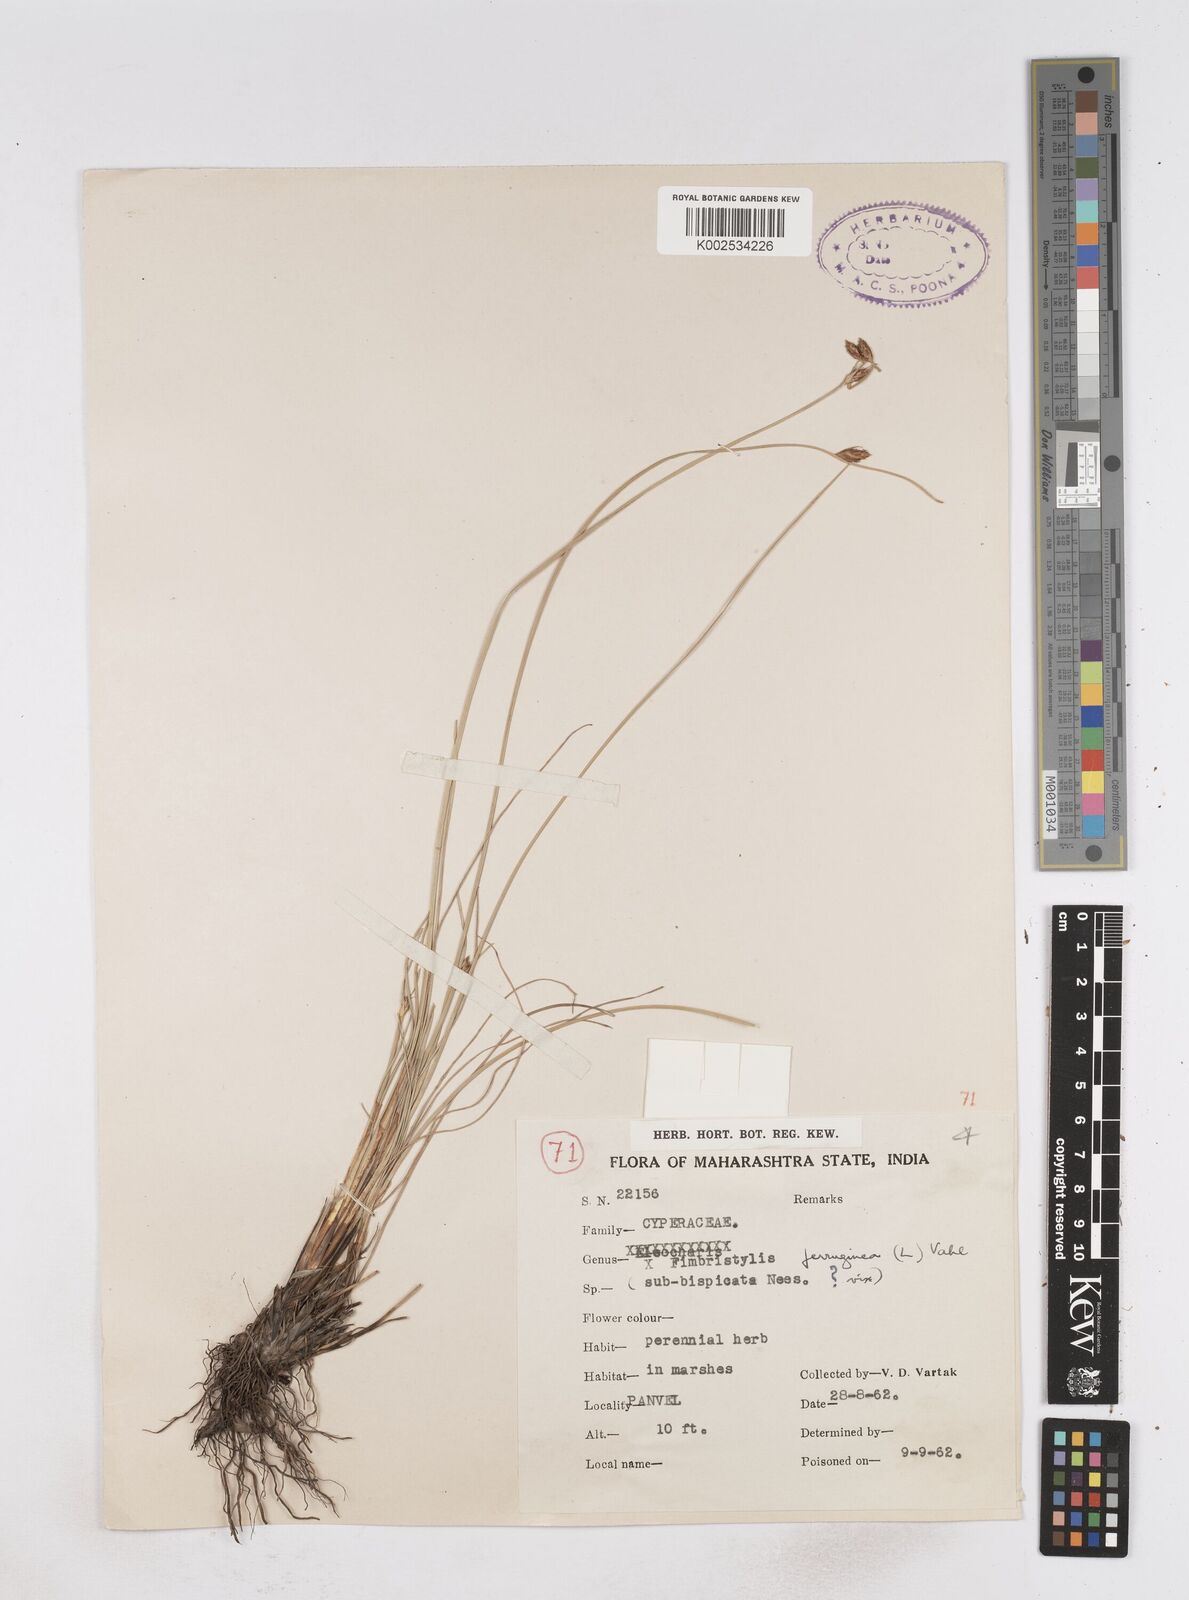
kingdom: Plantae
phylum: Tracheophyta
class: Liliopsida
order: Poales
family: Cyperaceae
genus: Fimbristylis
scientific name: Fimbristylis ferruginea
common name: West indian fimbry
